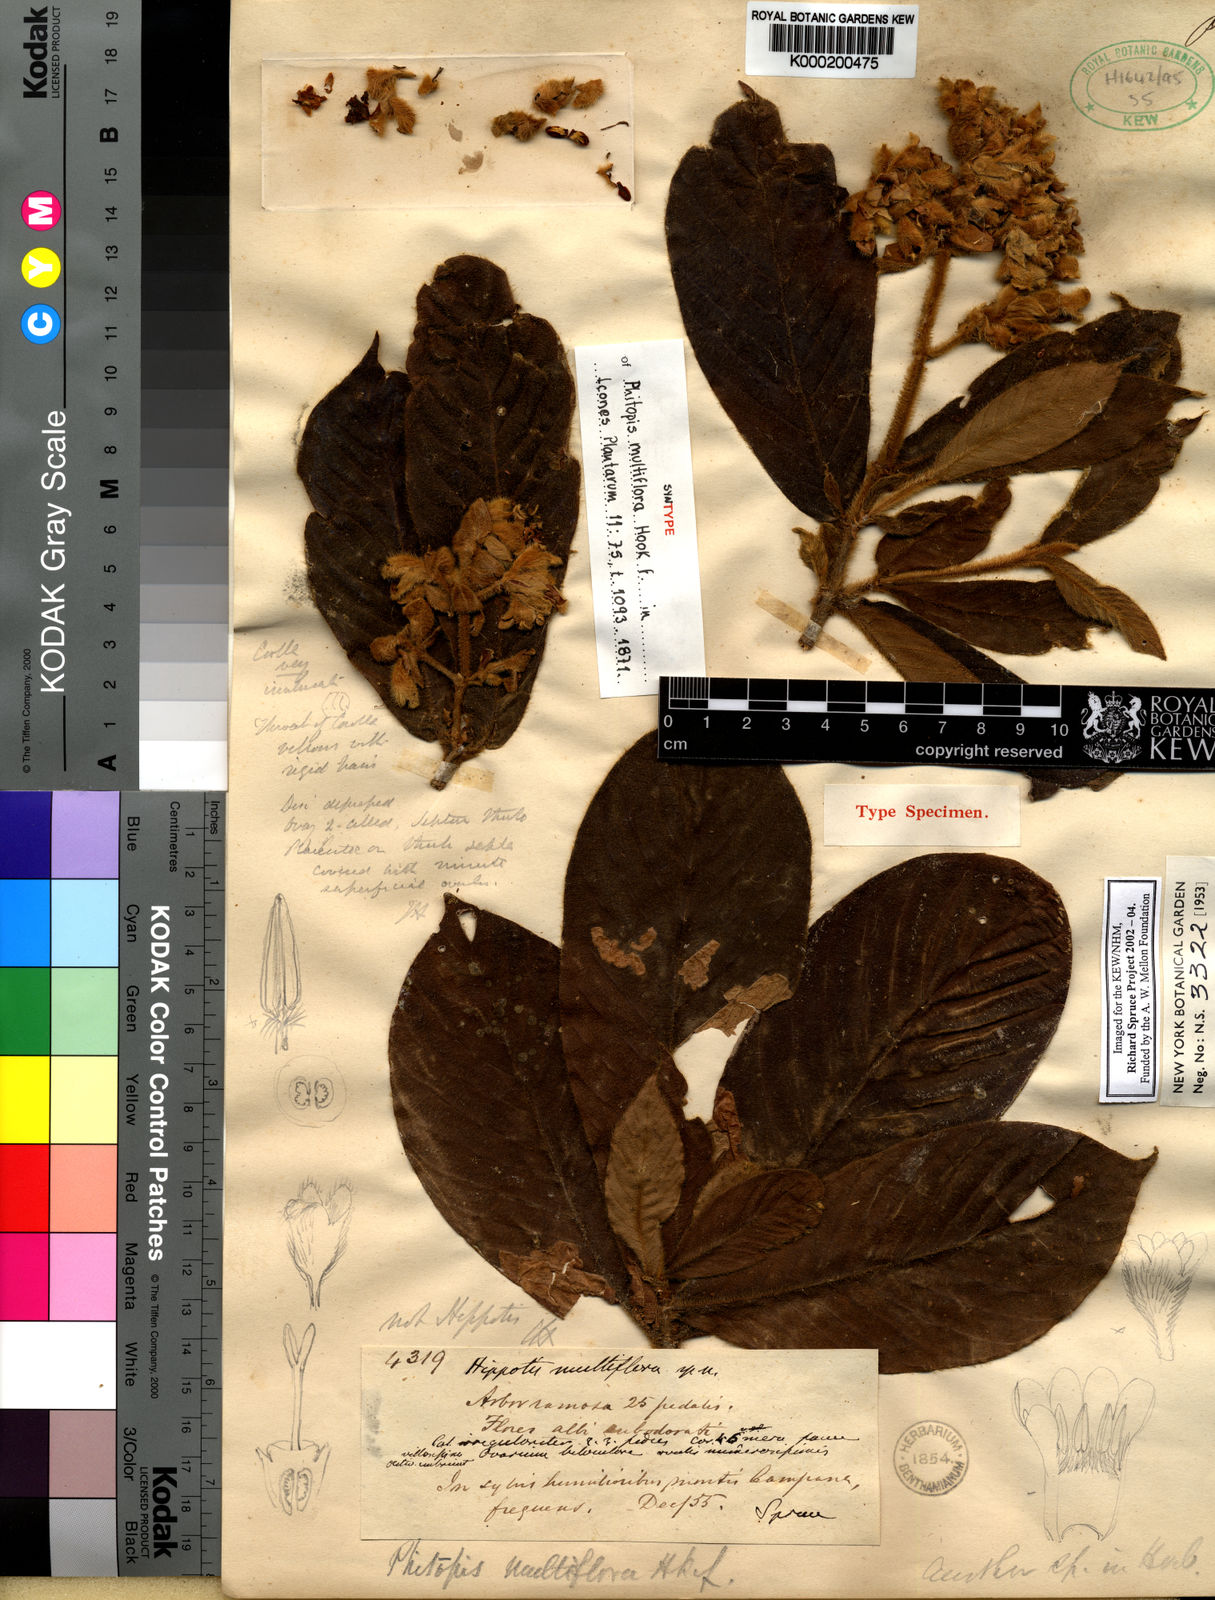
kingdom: Plantae
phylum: Tracheophyta
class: Magnoliopsida
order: Gentianales
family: Rubiaceae
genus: Schizocalyx
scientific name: Schizocalyx multiflorus
